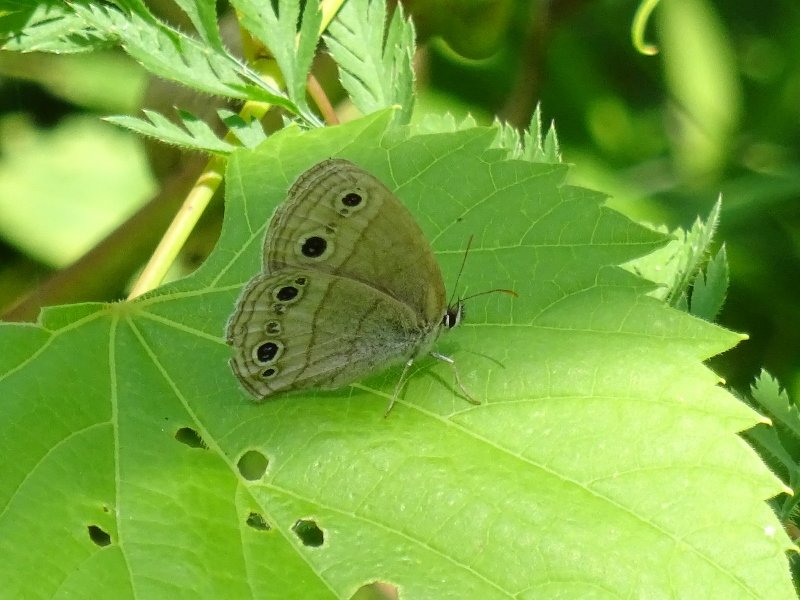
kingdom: Animalia
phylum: Arthropoda
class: Insecta
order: Lepidoptera
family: Nymphalidae
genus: Euptychia
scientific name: Euptychia cymela
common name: Little Wood Satyr
